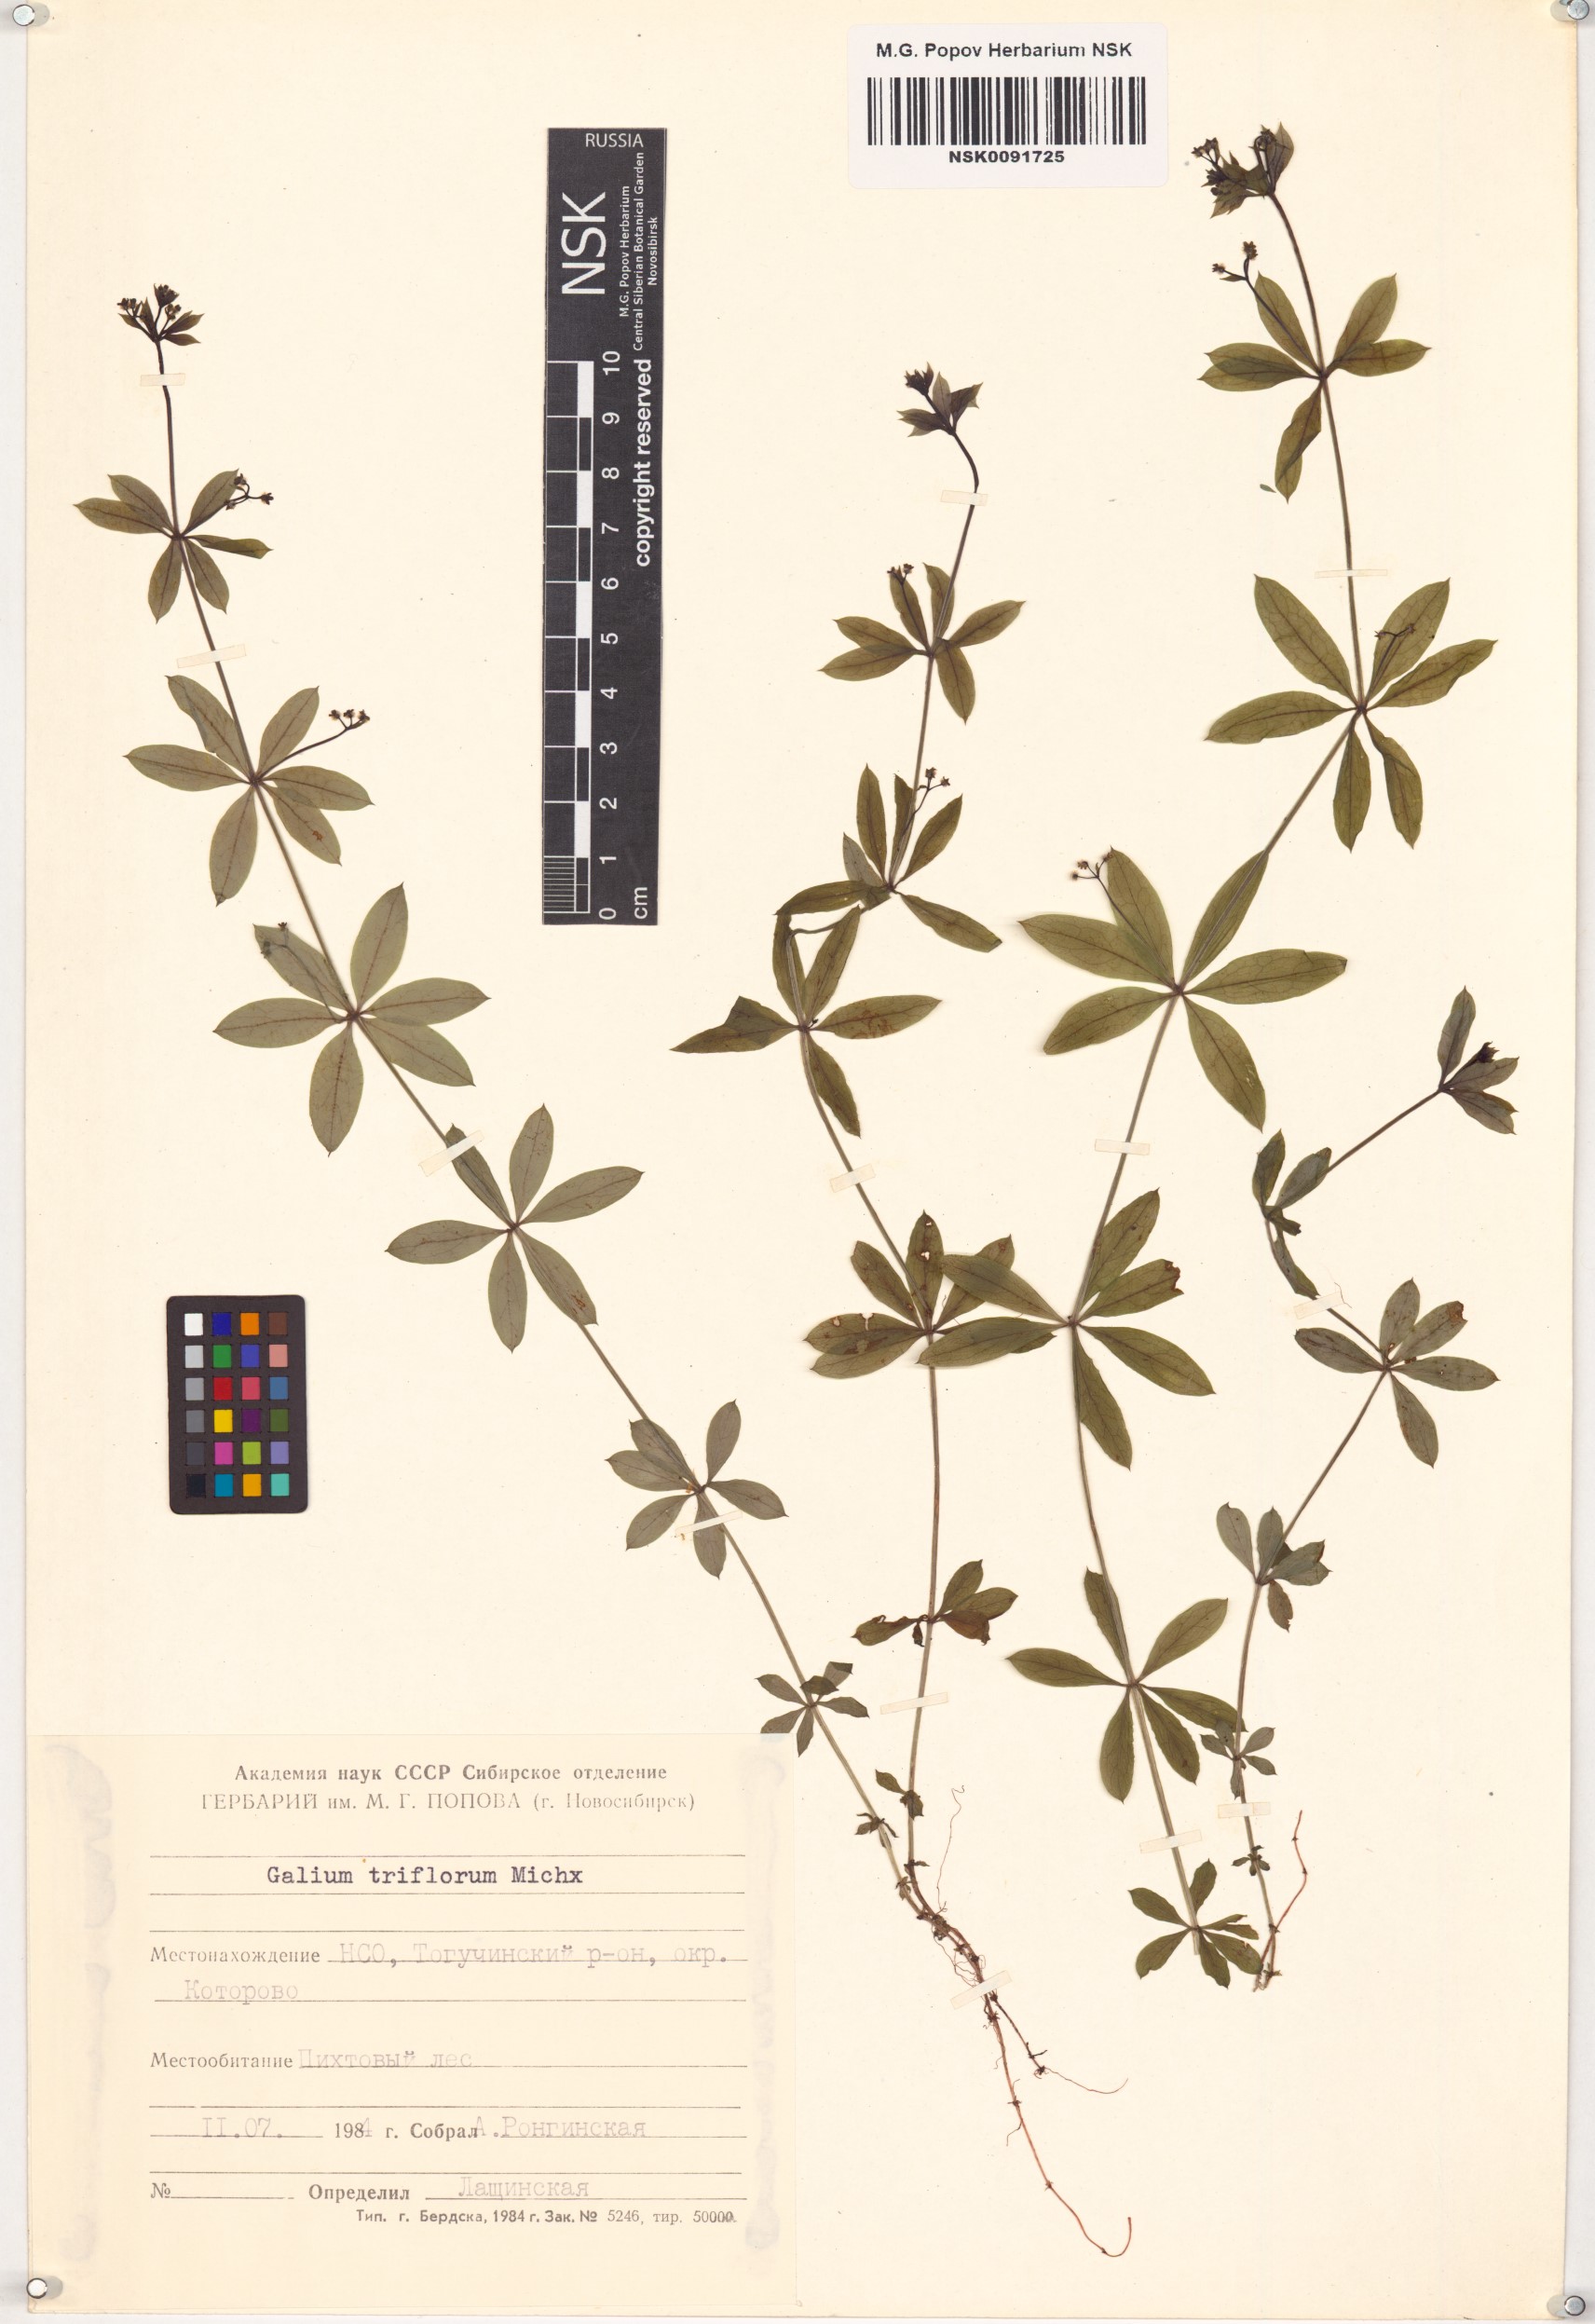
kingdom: Plantae
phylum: Tracheophyta
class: Magnoliopsida
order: Gentianales
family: Rubiaceae
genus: Galium
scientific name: Galium triflorum
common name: Fragrant bedstraw
